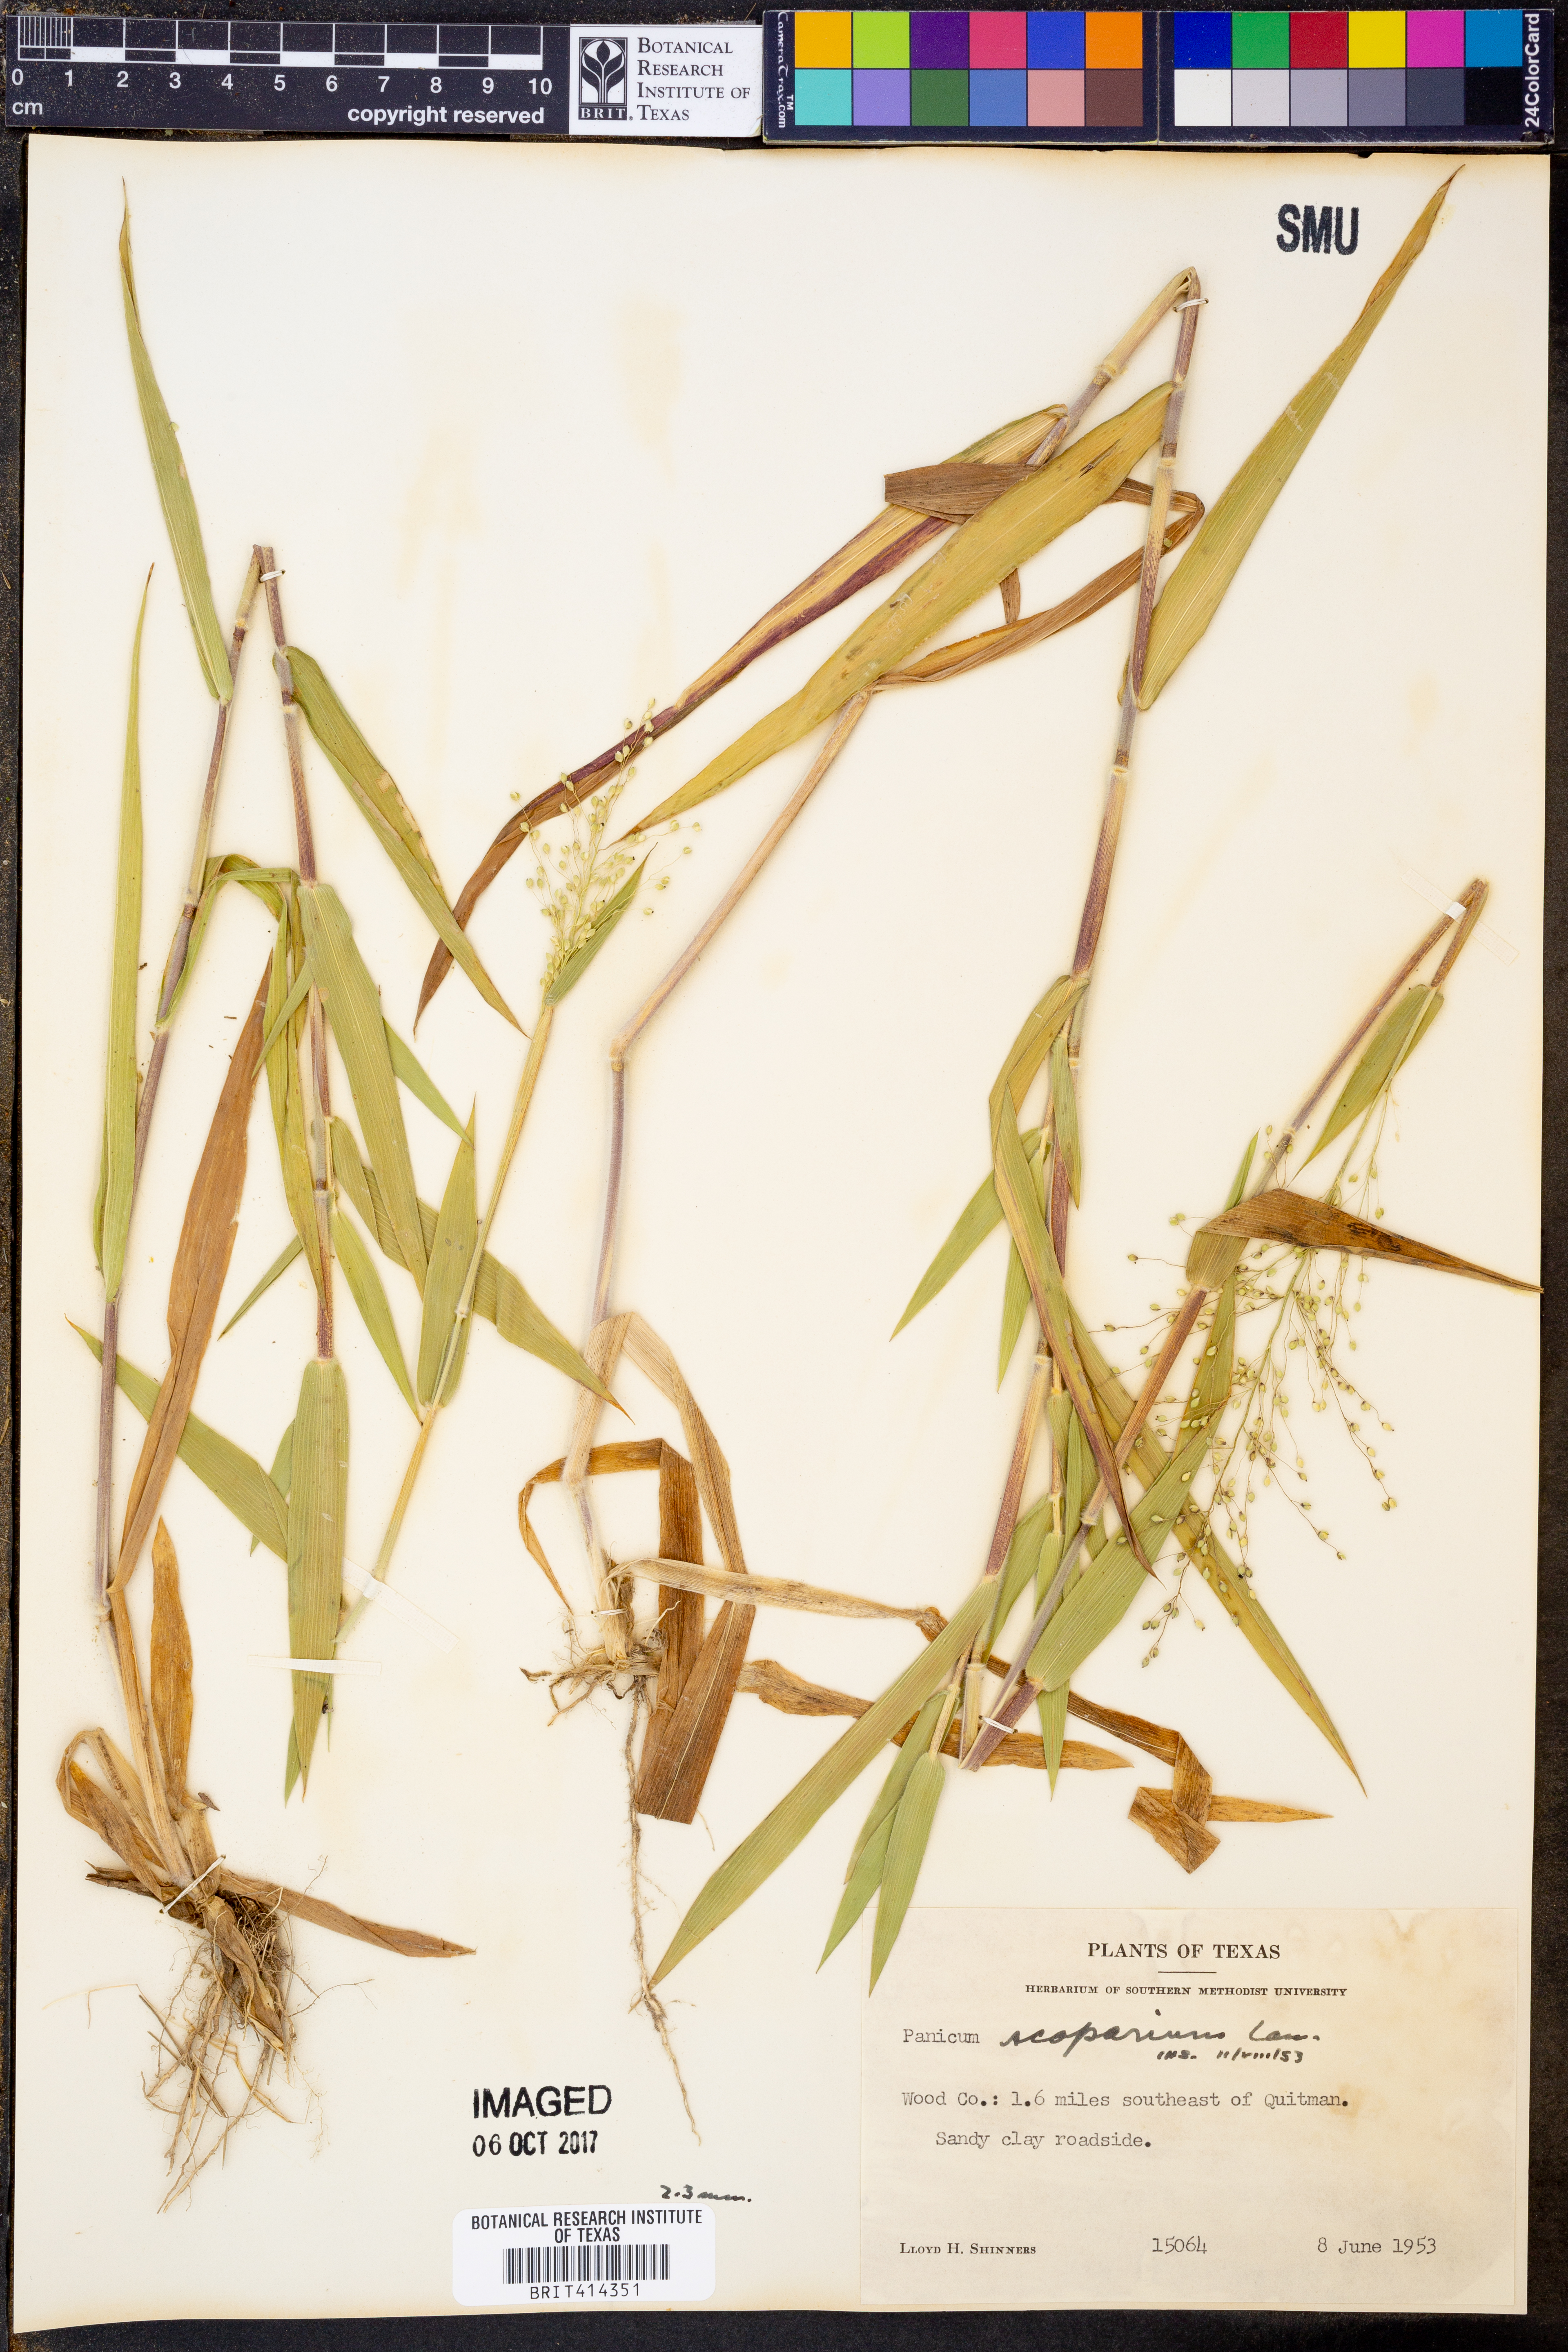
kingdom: Plantae
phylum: Tracheophyta
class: Liliopsida
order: Poales
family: Poaceae
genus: Dichanthelium
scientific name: Dichanthelium scribnerianum
